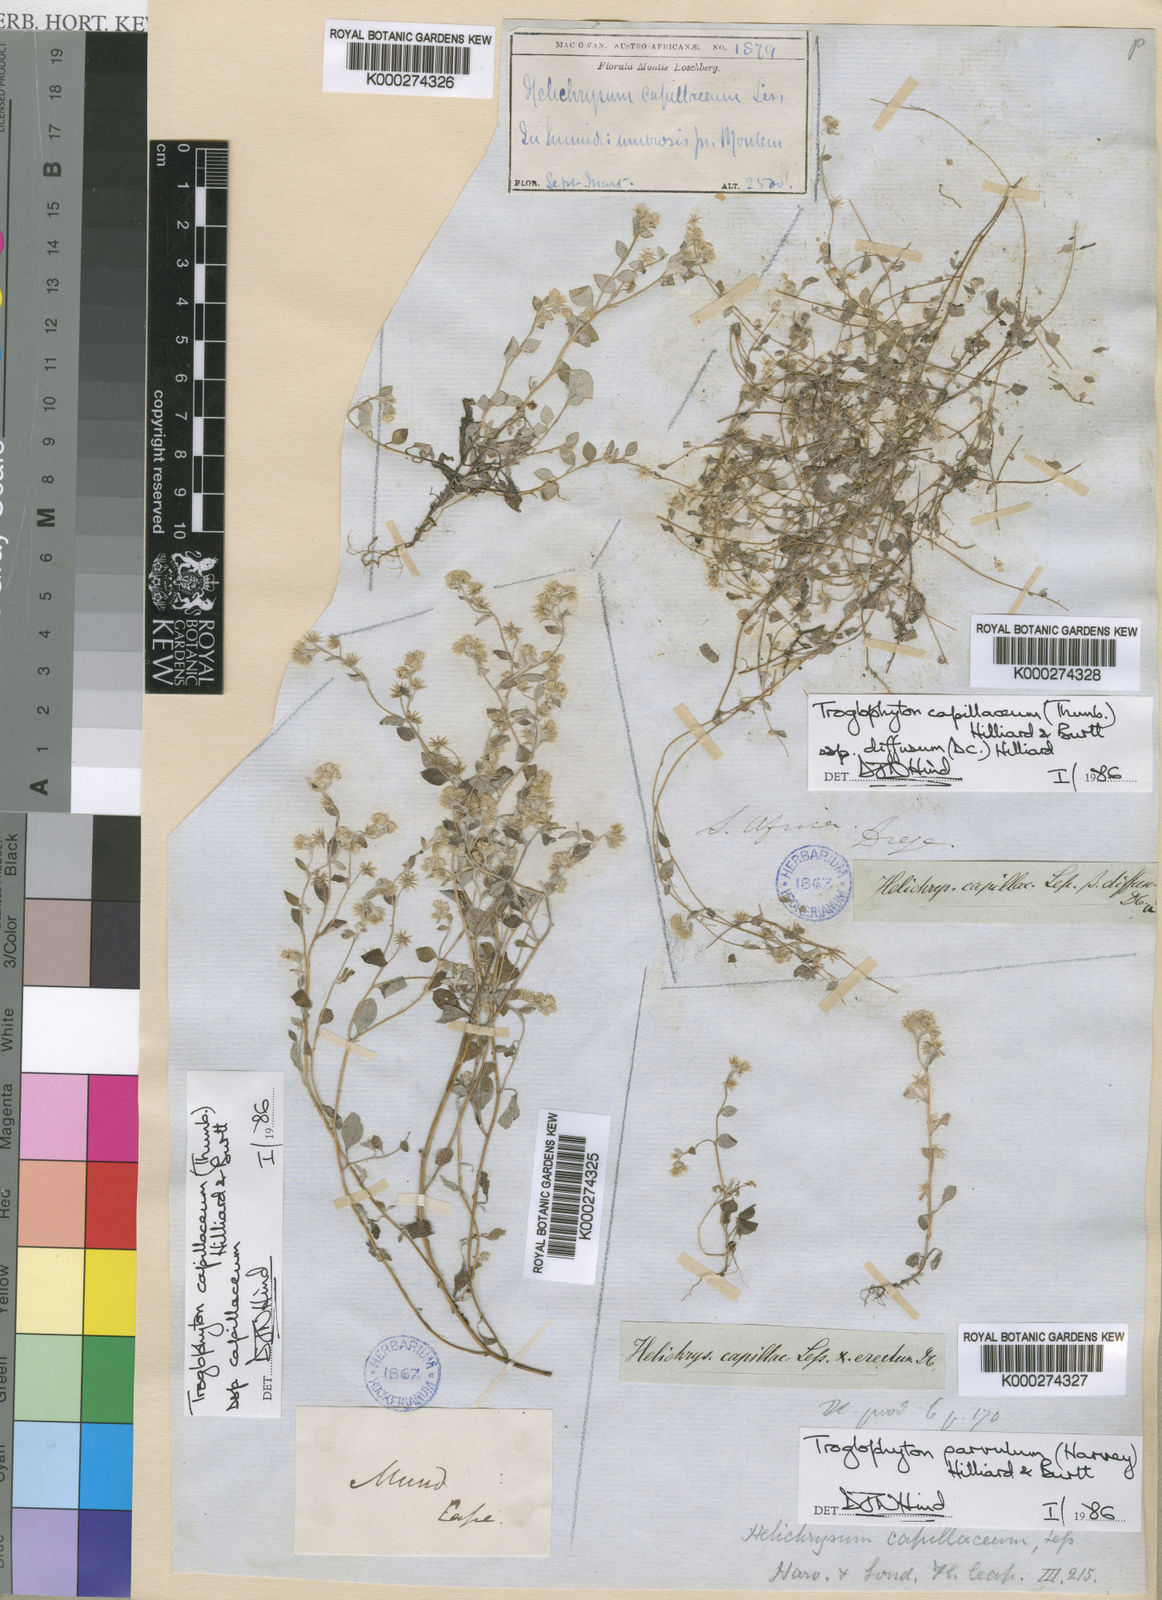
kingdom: Plantae
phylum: Tracheophyta
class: Magnoliopsida
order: Asterales
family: Asteraceae
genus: Troglophyton
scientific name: Troglophyton capillaceum
